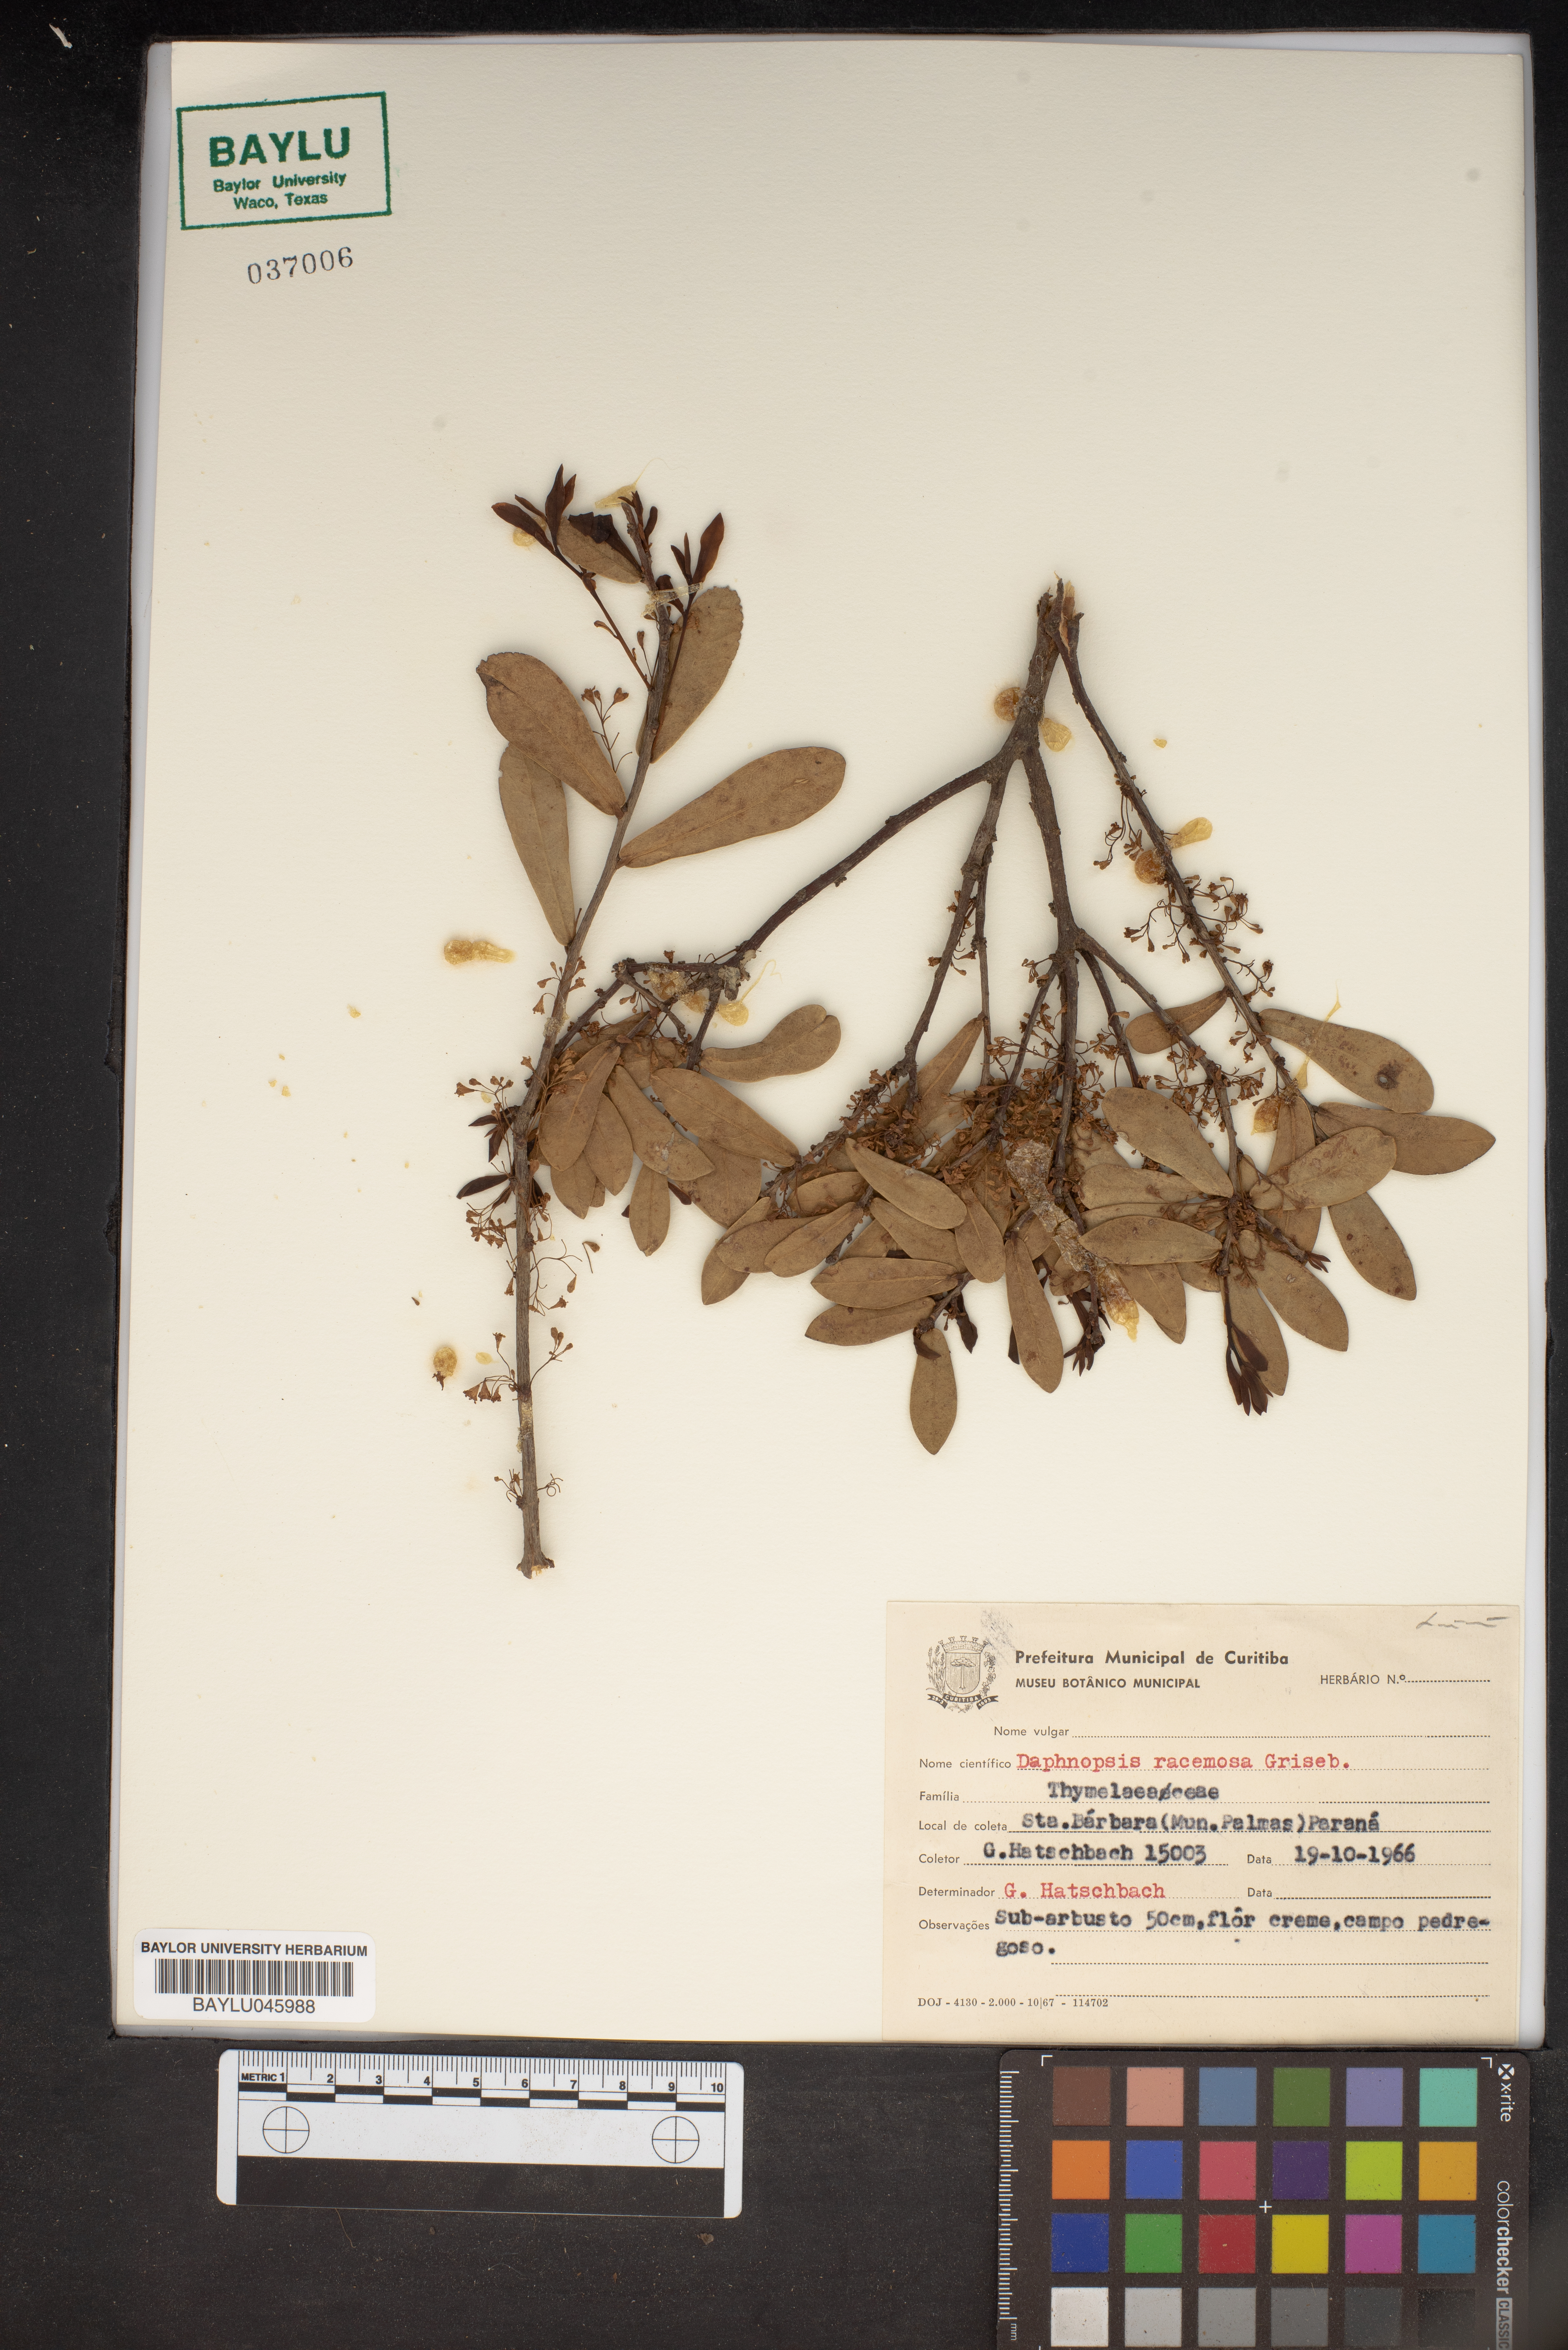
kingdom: Plantae
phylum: Tracheophyta
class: Magnoliopsida
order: Malvales
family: Thymelaeaceae
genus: Daphnopsis
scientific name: Daphnopsis racemosa
